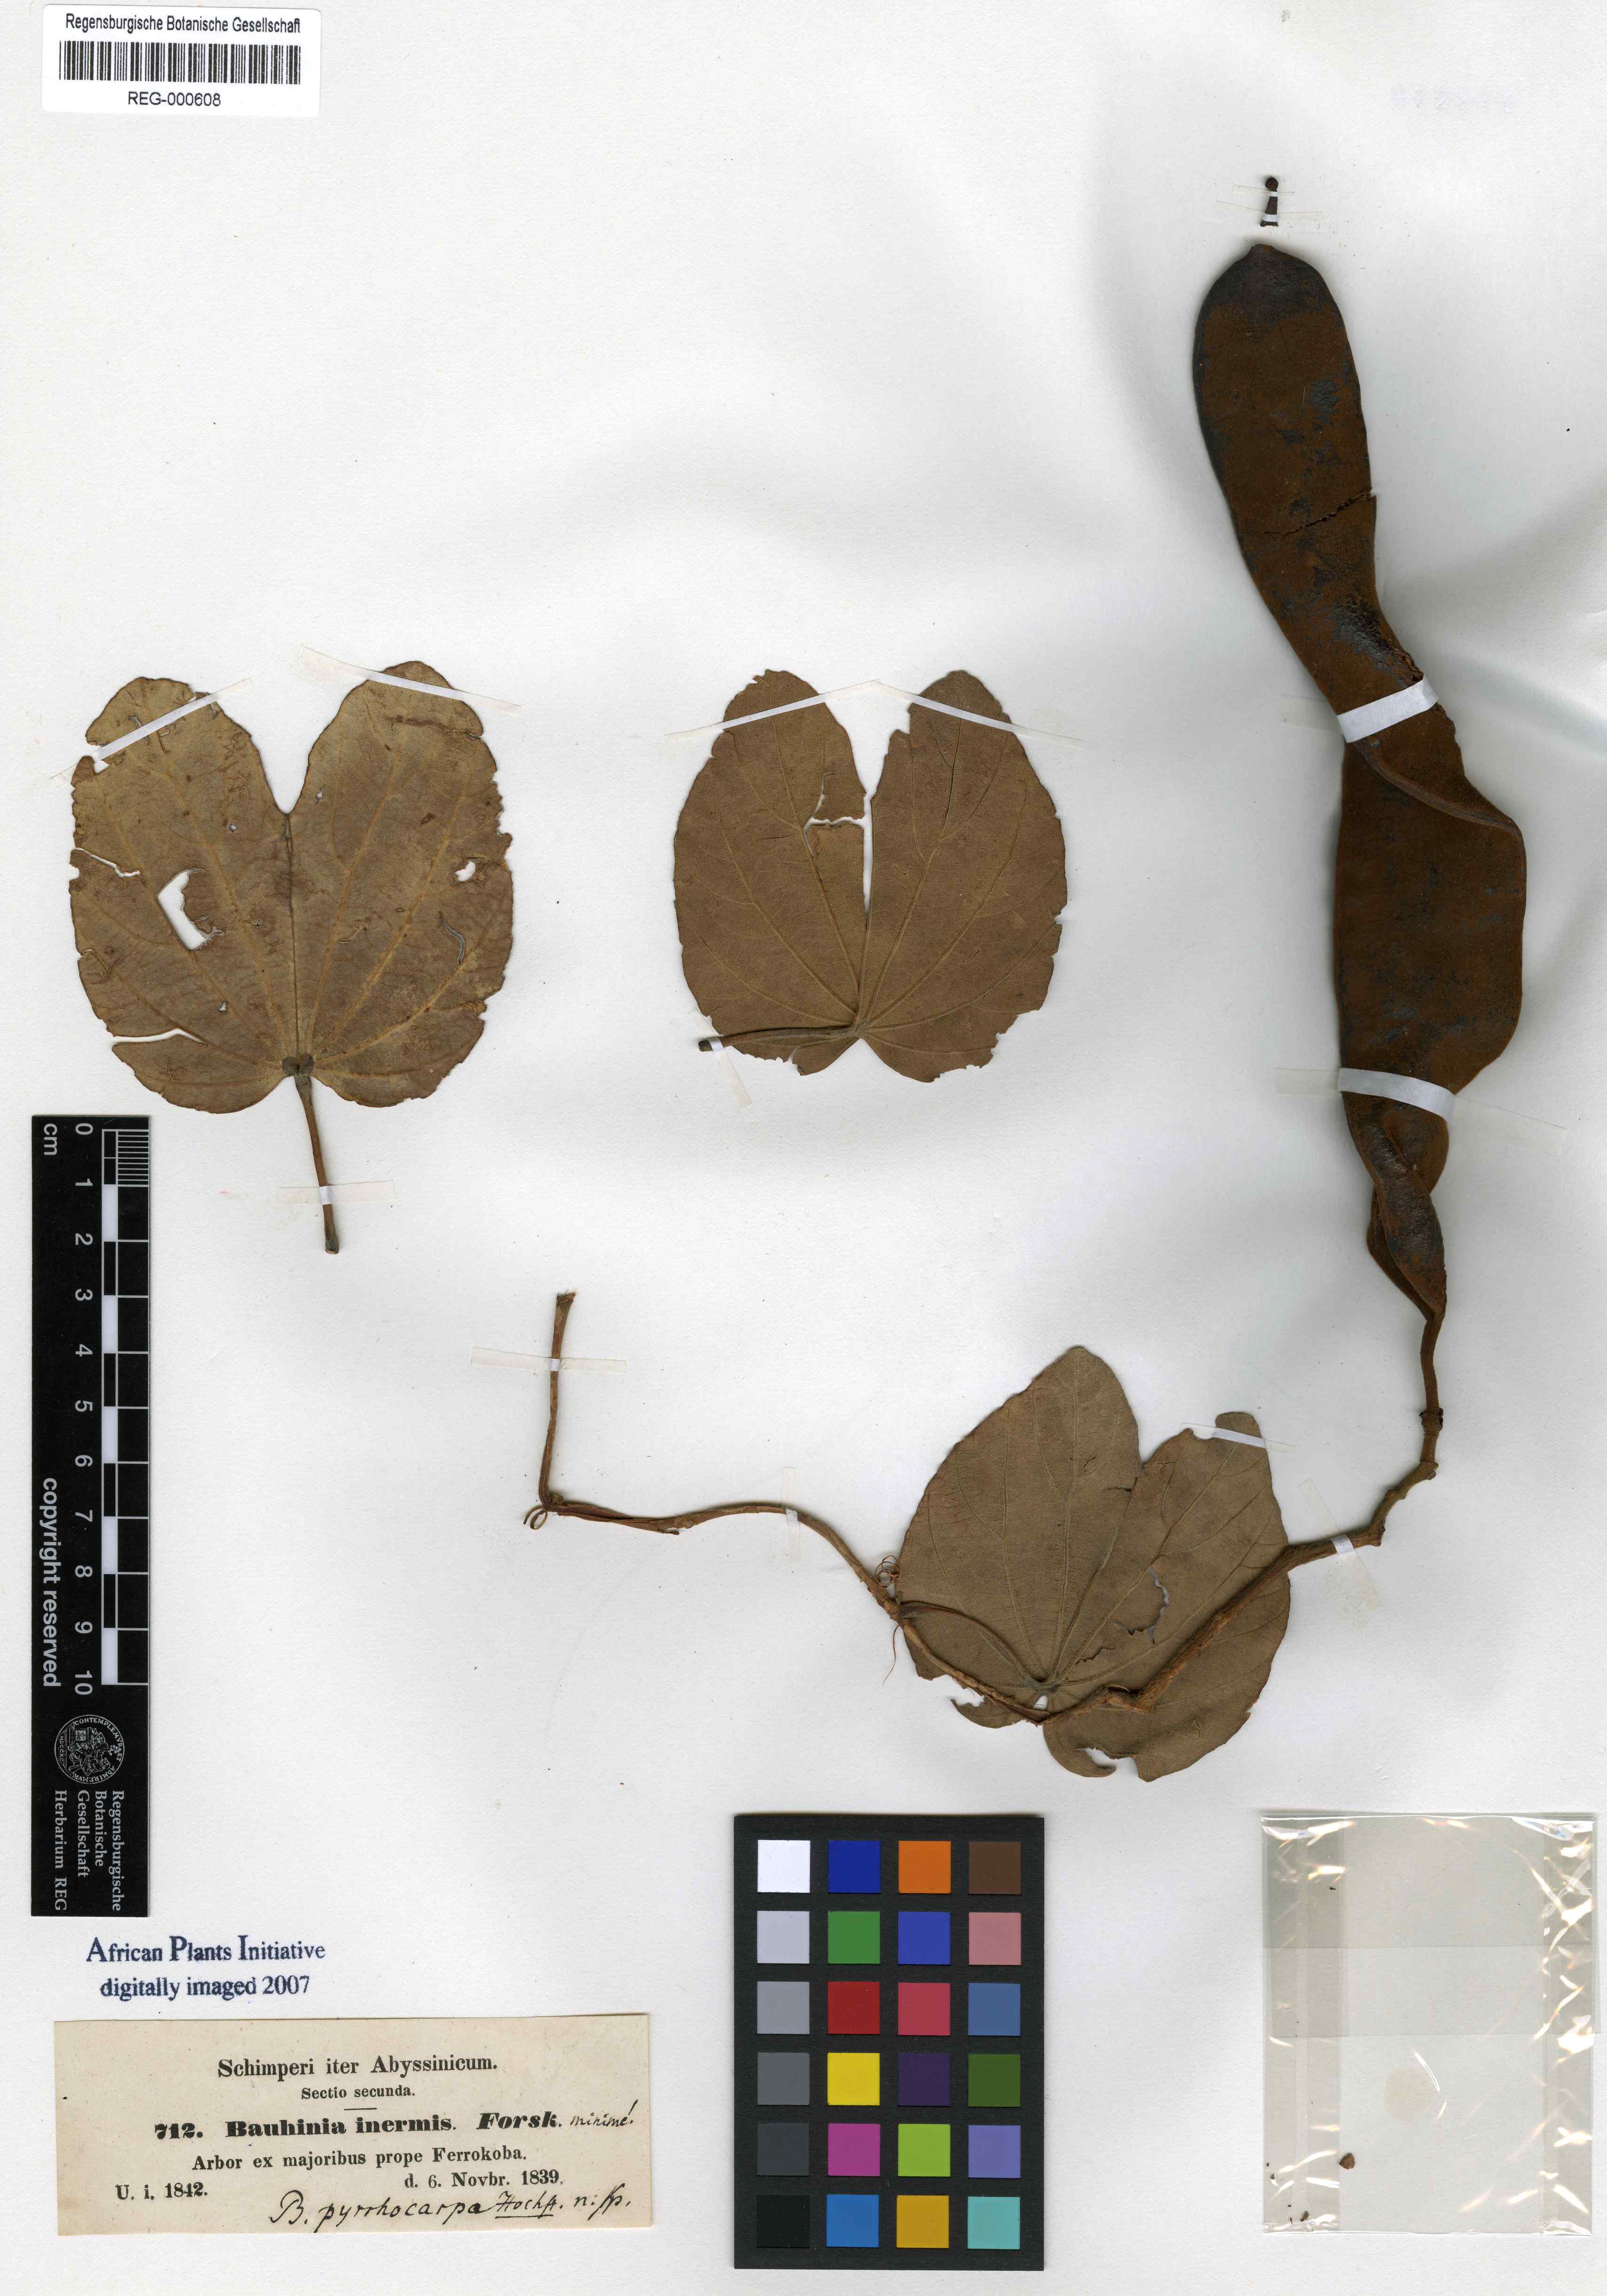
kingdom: Plantae
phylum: Tracheophyta
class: Magnoliopsida
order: Fabales
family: Fabaceae
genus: Piliostigma
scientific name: Piliostigma thonningii
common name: Kao
